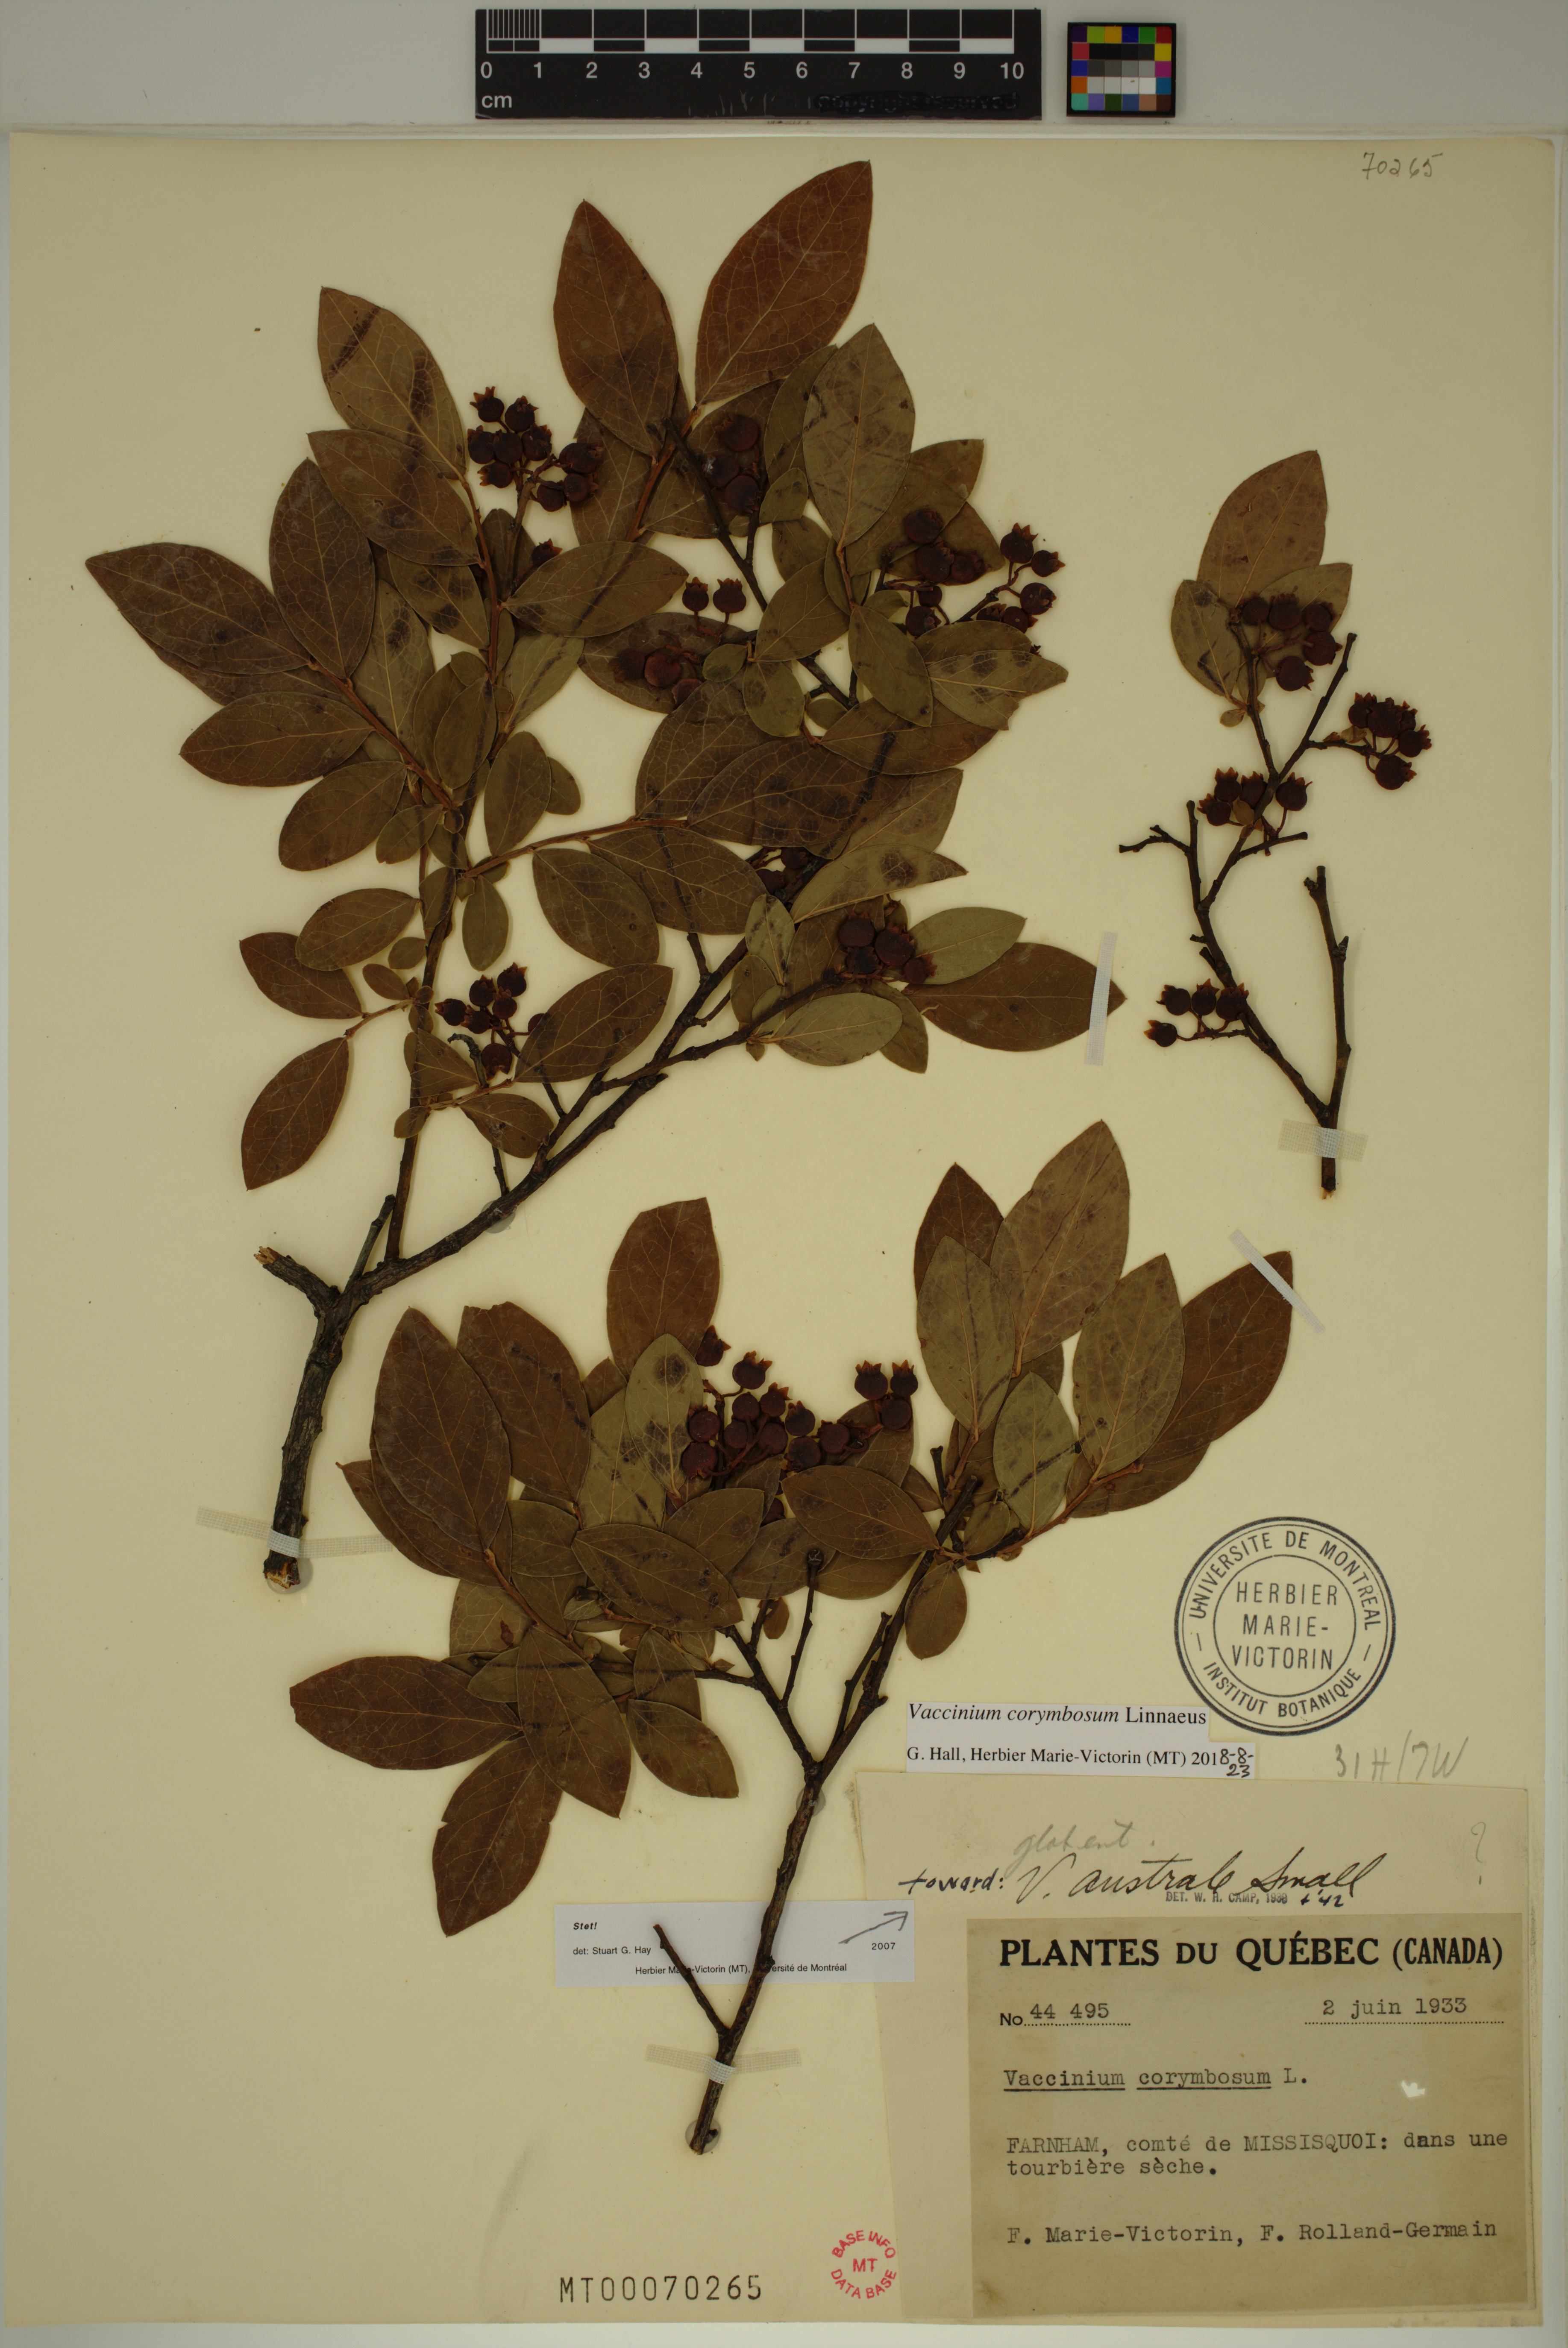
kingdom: Plantae
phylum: Tracheophyta
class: Magnoliopsida
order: Ericales
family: Ericaceae
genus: Vaccinium
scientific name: Vaccinium corymbosum
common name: Blueberry
